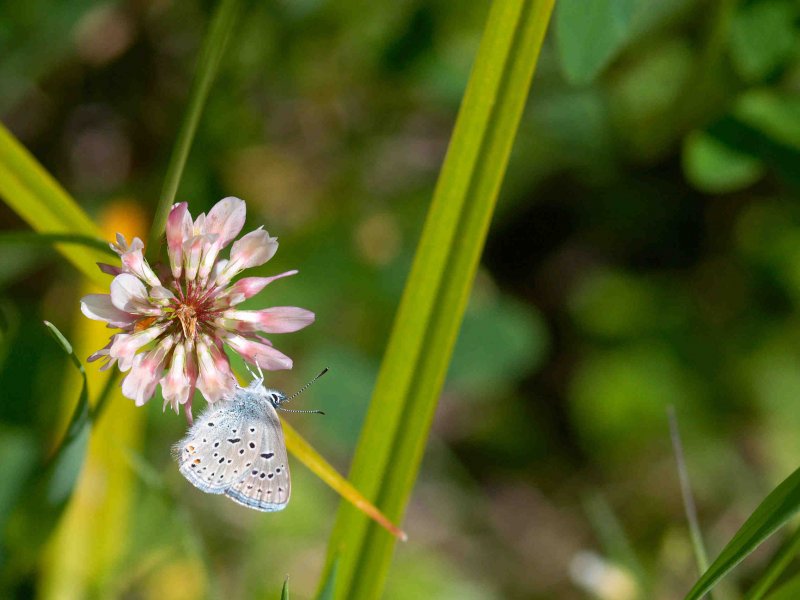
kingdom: Animalia
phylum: Arthropoda
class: Insecta
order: Lepidoptera
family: Lycaenidae
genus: Plebejus
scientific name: Plebejus saepiolus
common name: Greenish Blue
